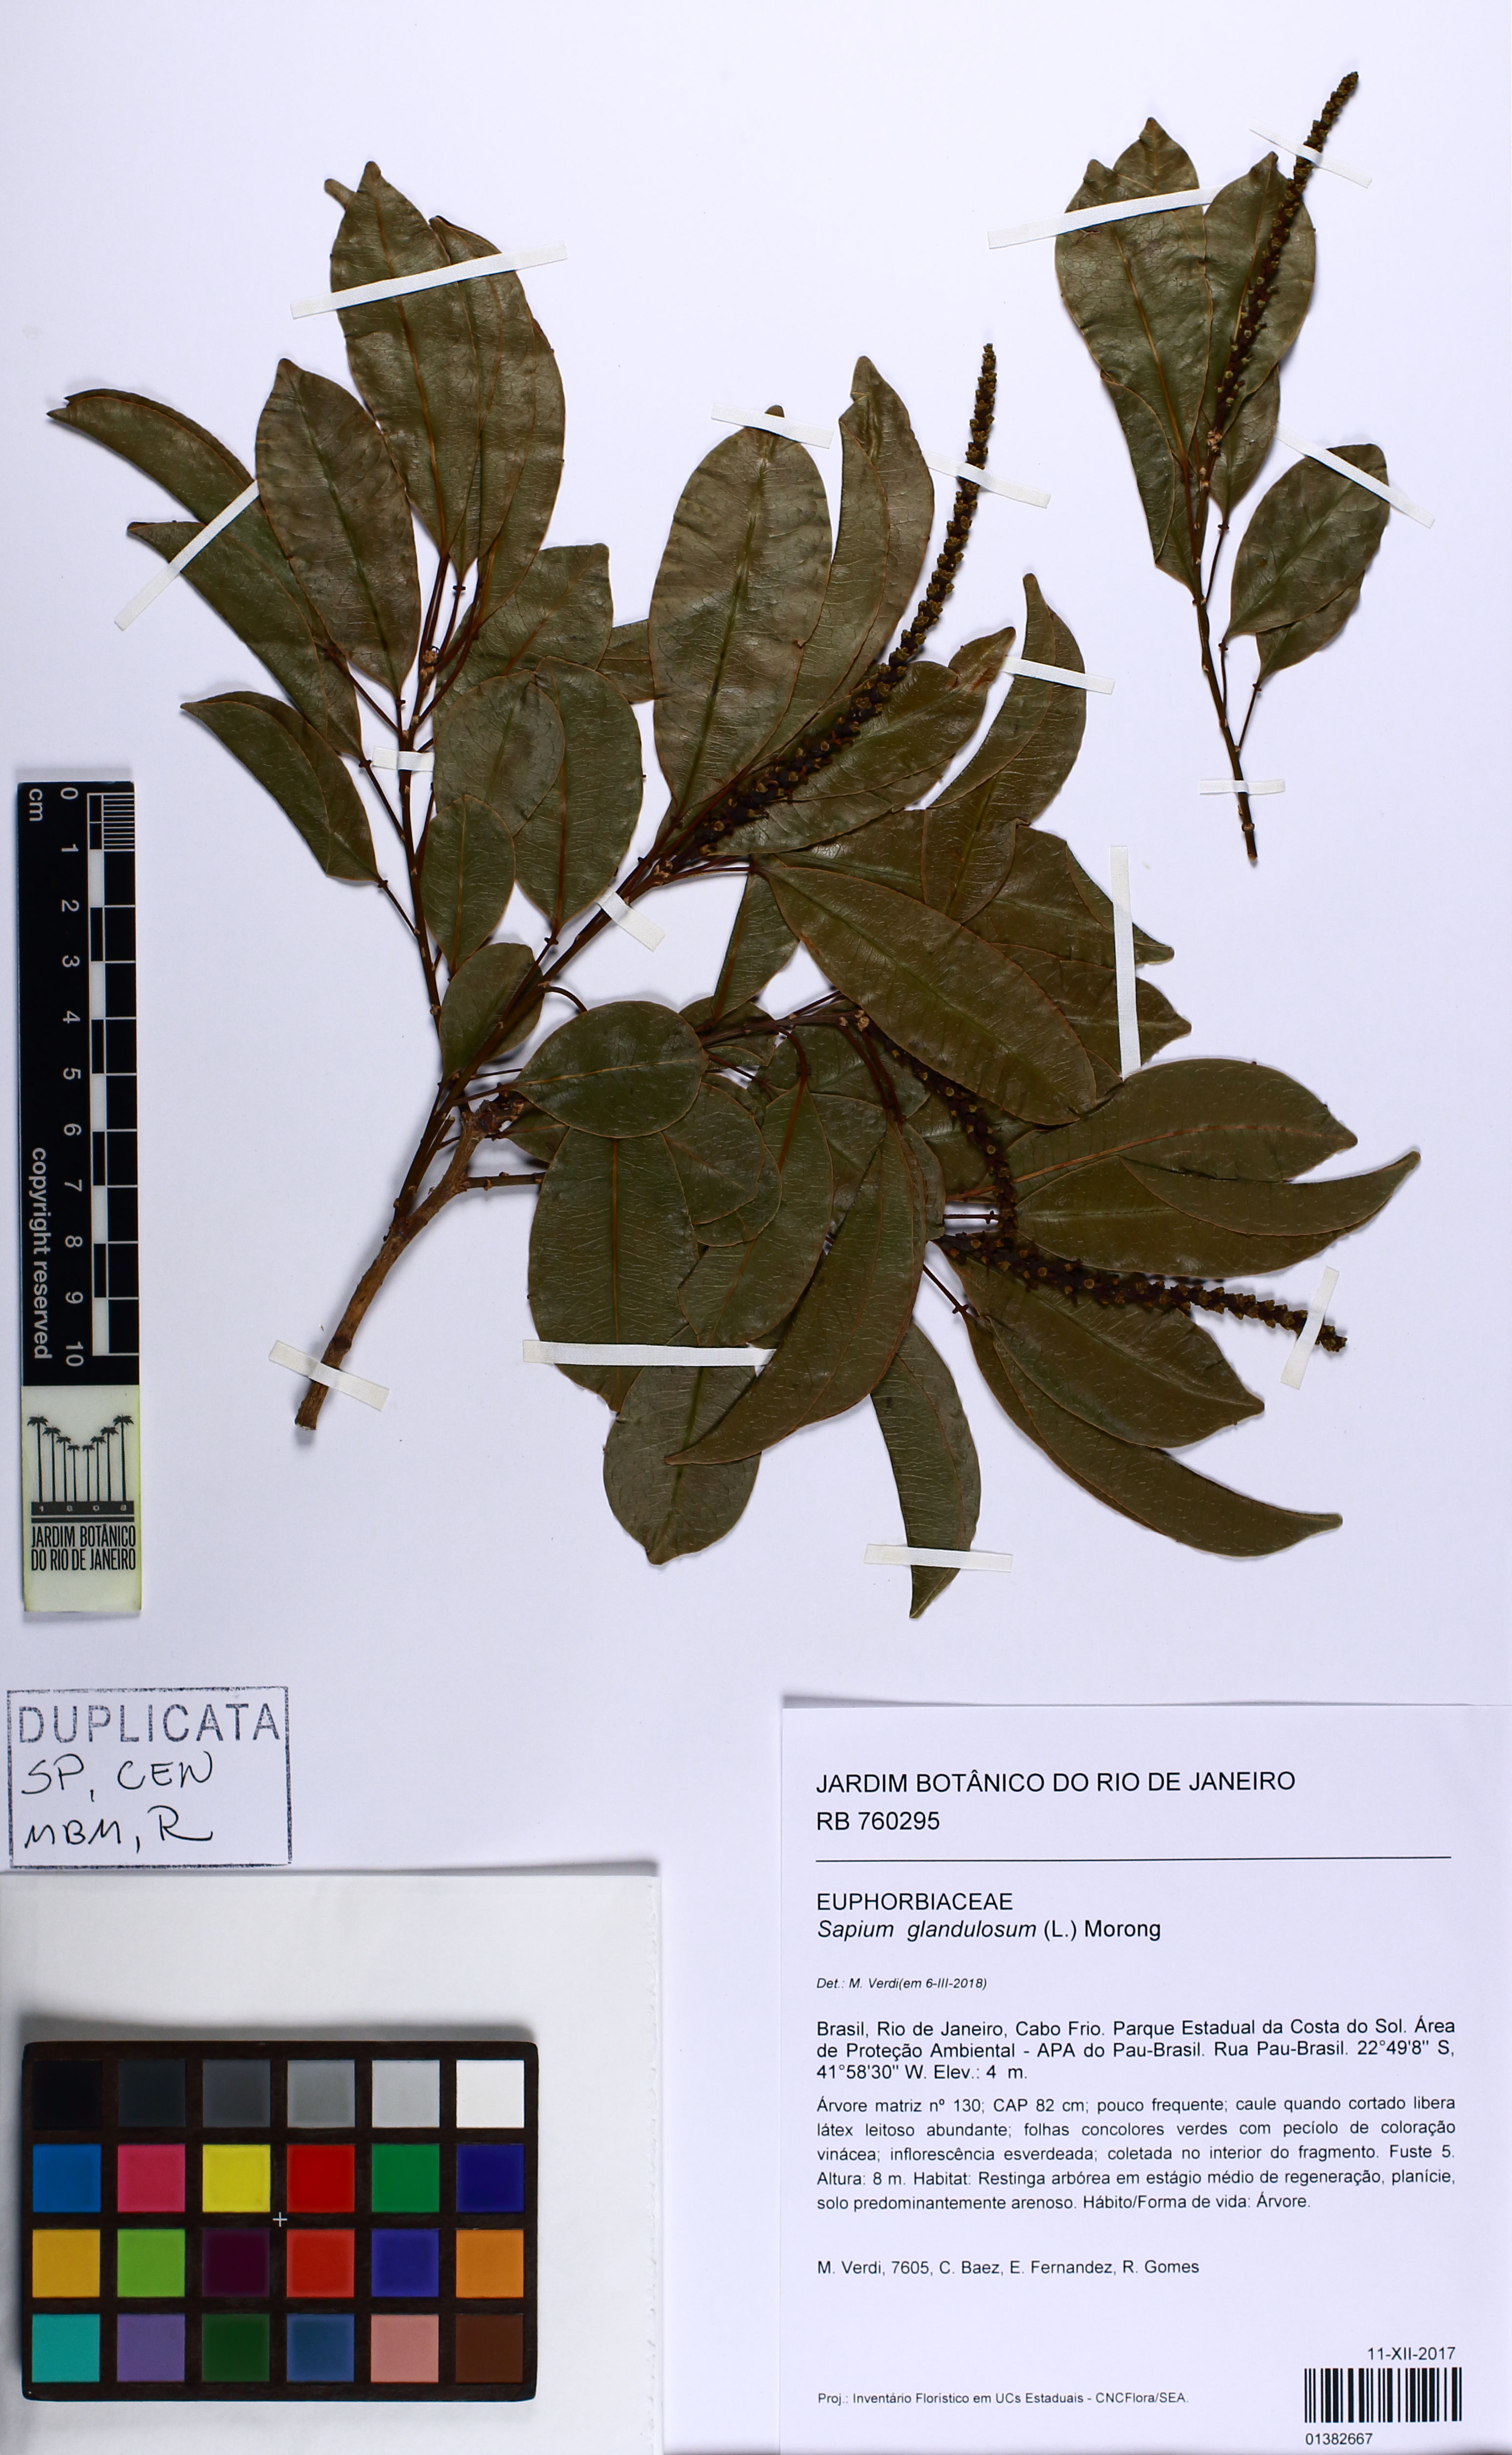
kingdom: Plantae
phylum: Tracheophyta
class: Magnoliopsida
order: Malpighiales
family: Euphorbiaceae
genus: Sapium
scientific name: Sapium glandulosum
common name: Milktree
